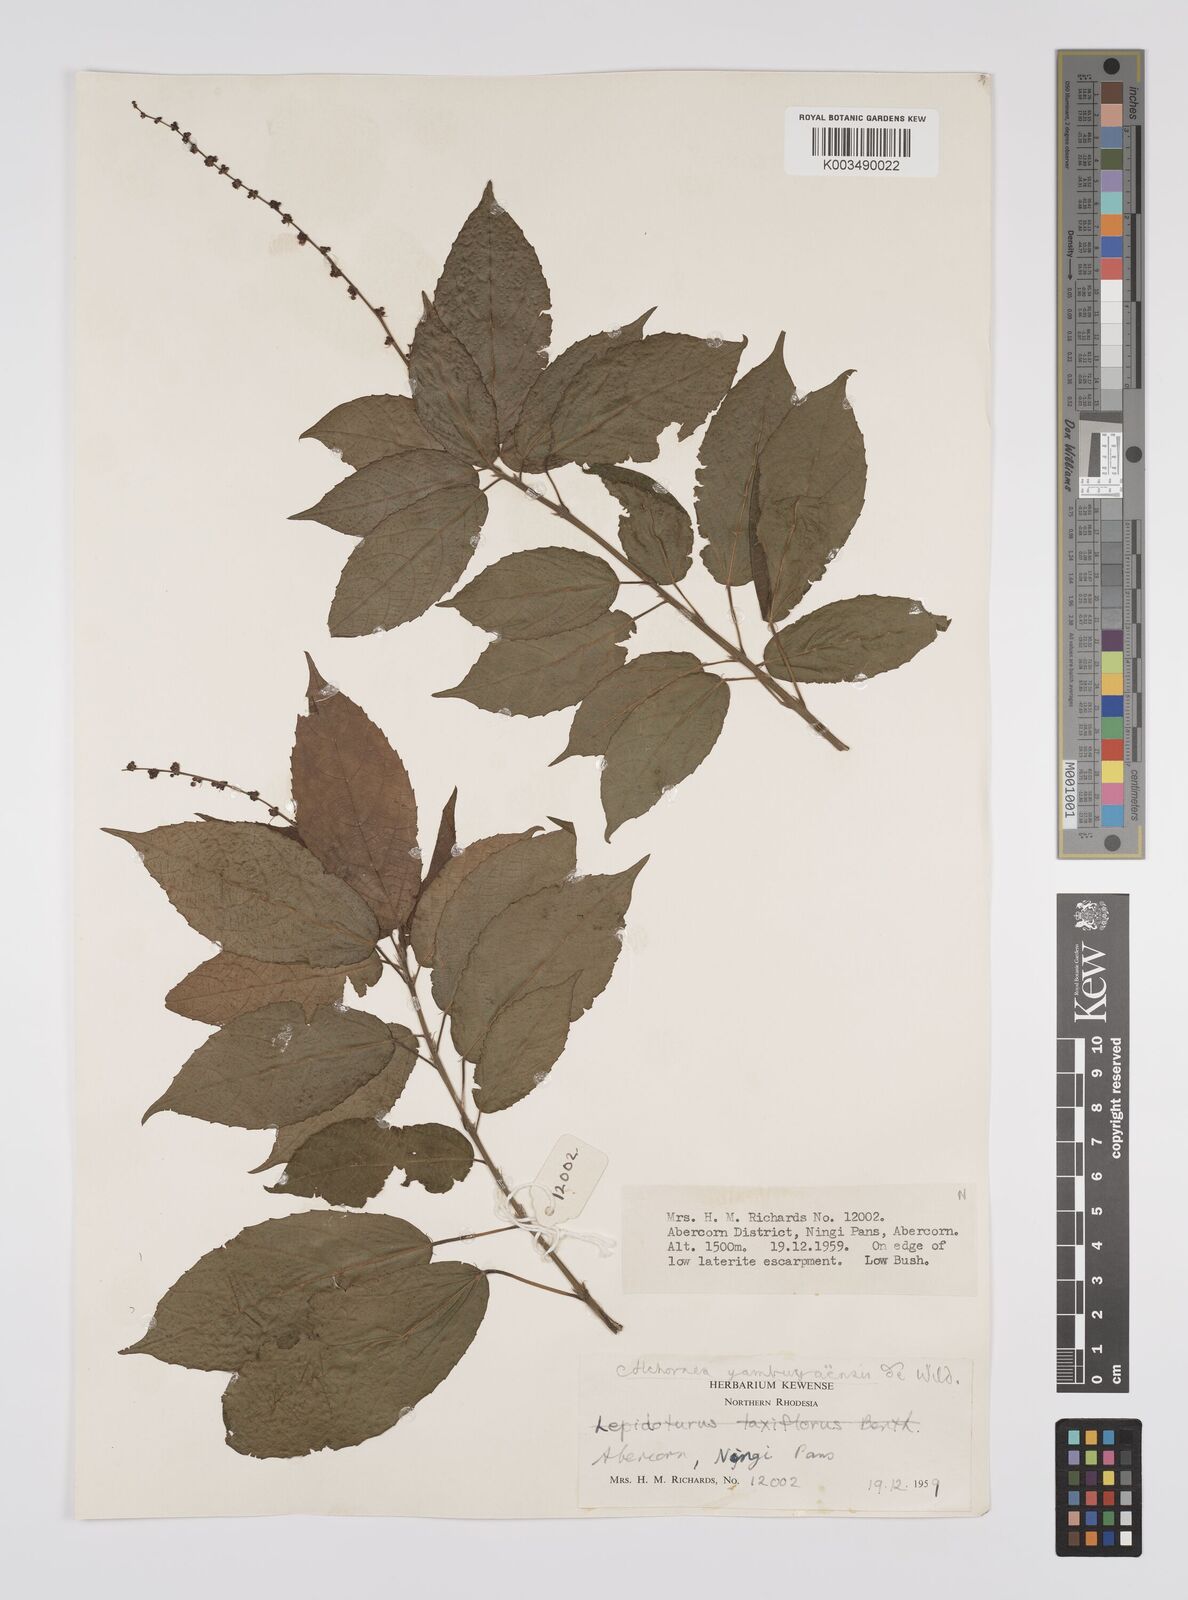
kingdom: Plantae
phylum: Tracheophyta
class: Magnoliopsida
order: Malpighiales
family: Euphorbiaceae
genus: Alchornea
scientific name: Alchornea yambuyaensis
